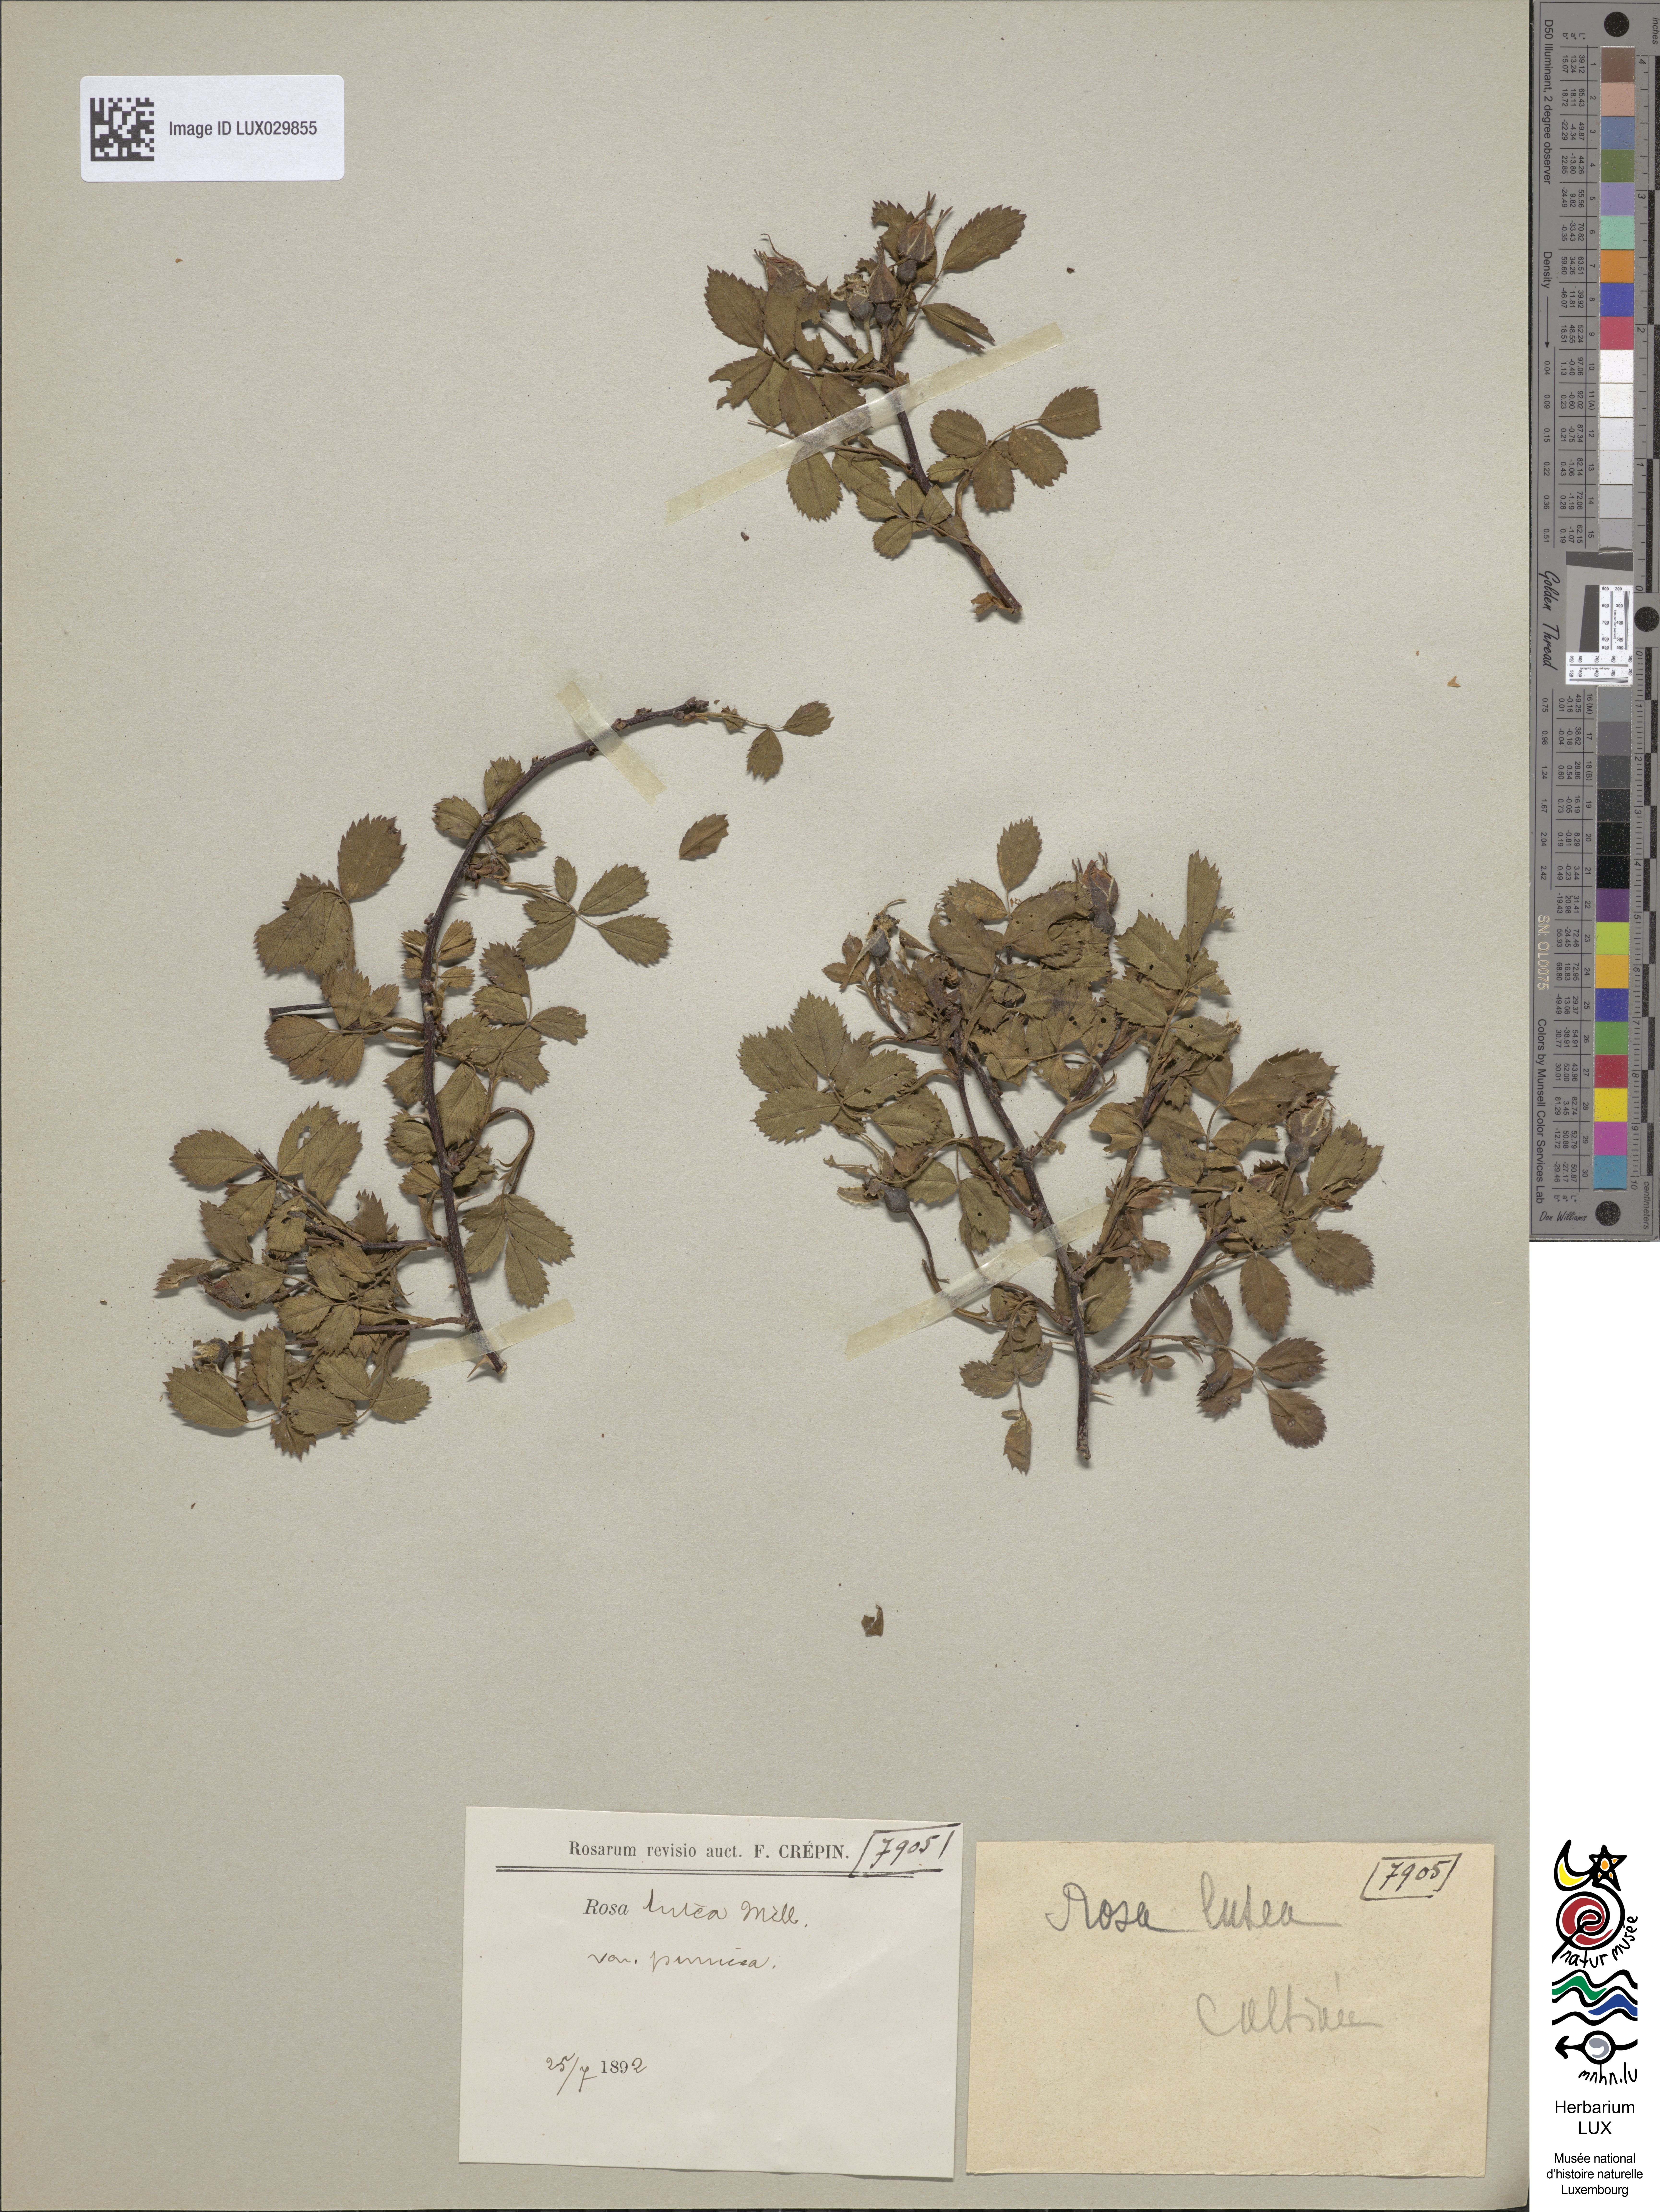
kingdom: Plantae
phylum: Tracheophyta
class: Magnoliopsida
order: Rosales
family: Rosaceae
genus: Rosa
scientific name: Rosa foetida
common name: Persian yellow rose
